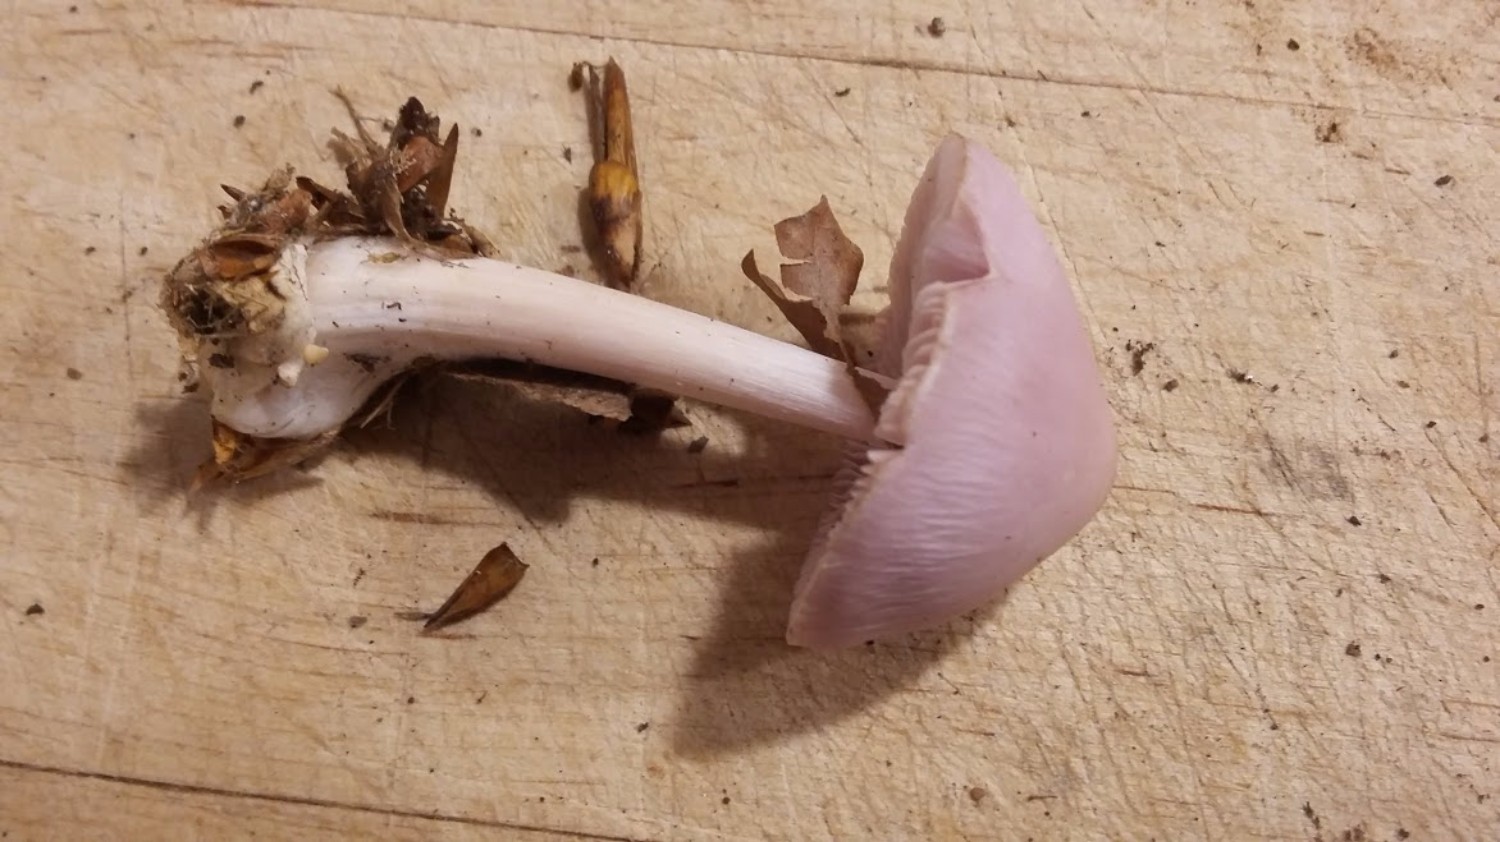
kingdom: Fungi
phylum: Basidiomycota
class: Agaricomycetes
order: Agaricales
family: Mycenaceae
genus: Mycena
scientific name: Mycena rosea
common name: rosa huesvamp
